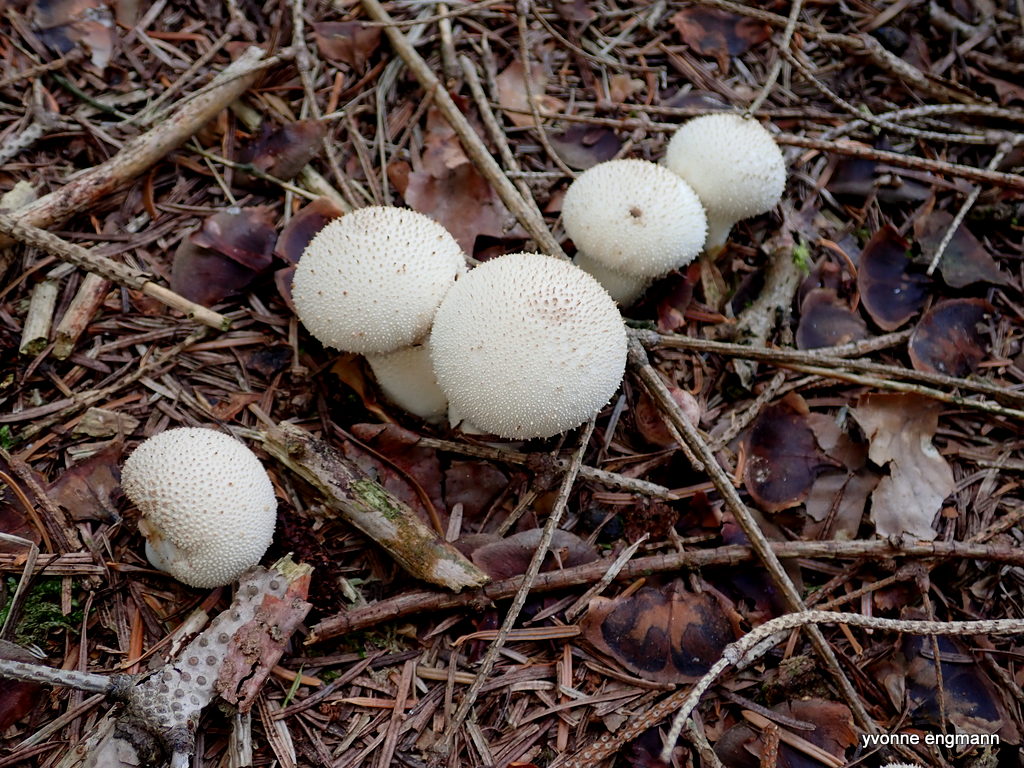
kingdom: Fungi
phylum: Basidiomycota
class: Agaricomycetes
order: Agaricales
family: Lycoperdaceae
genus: Lycoperdon
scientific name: Lycoperdon perlatum
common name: krystal-støvbold
